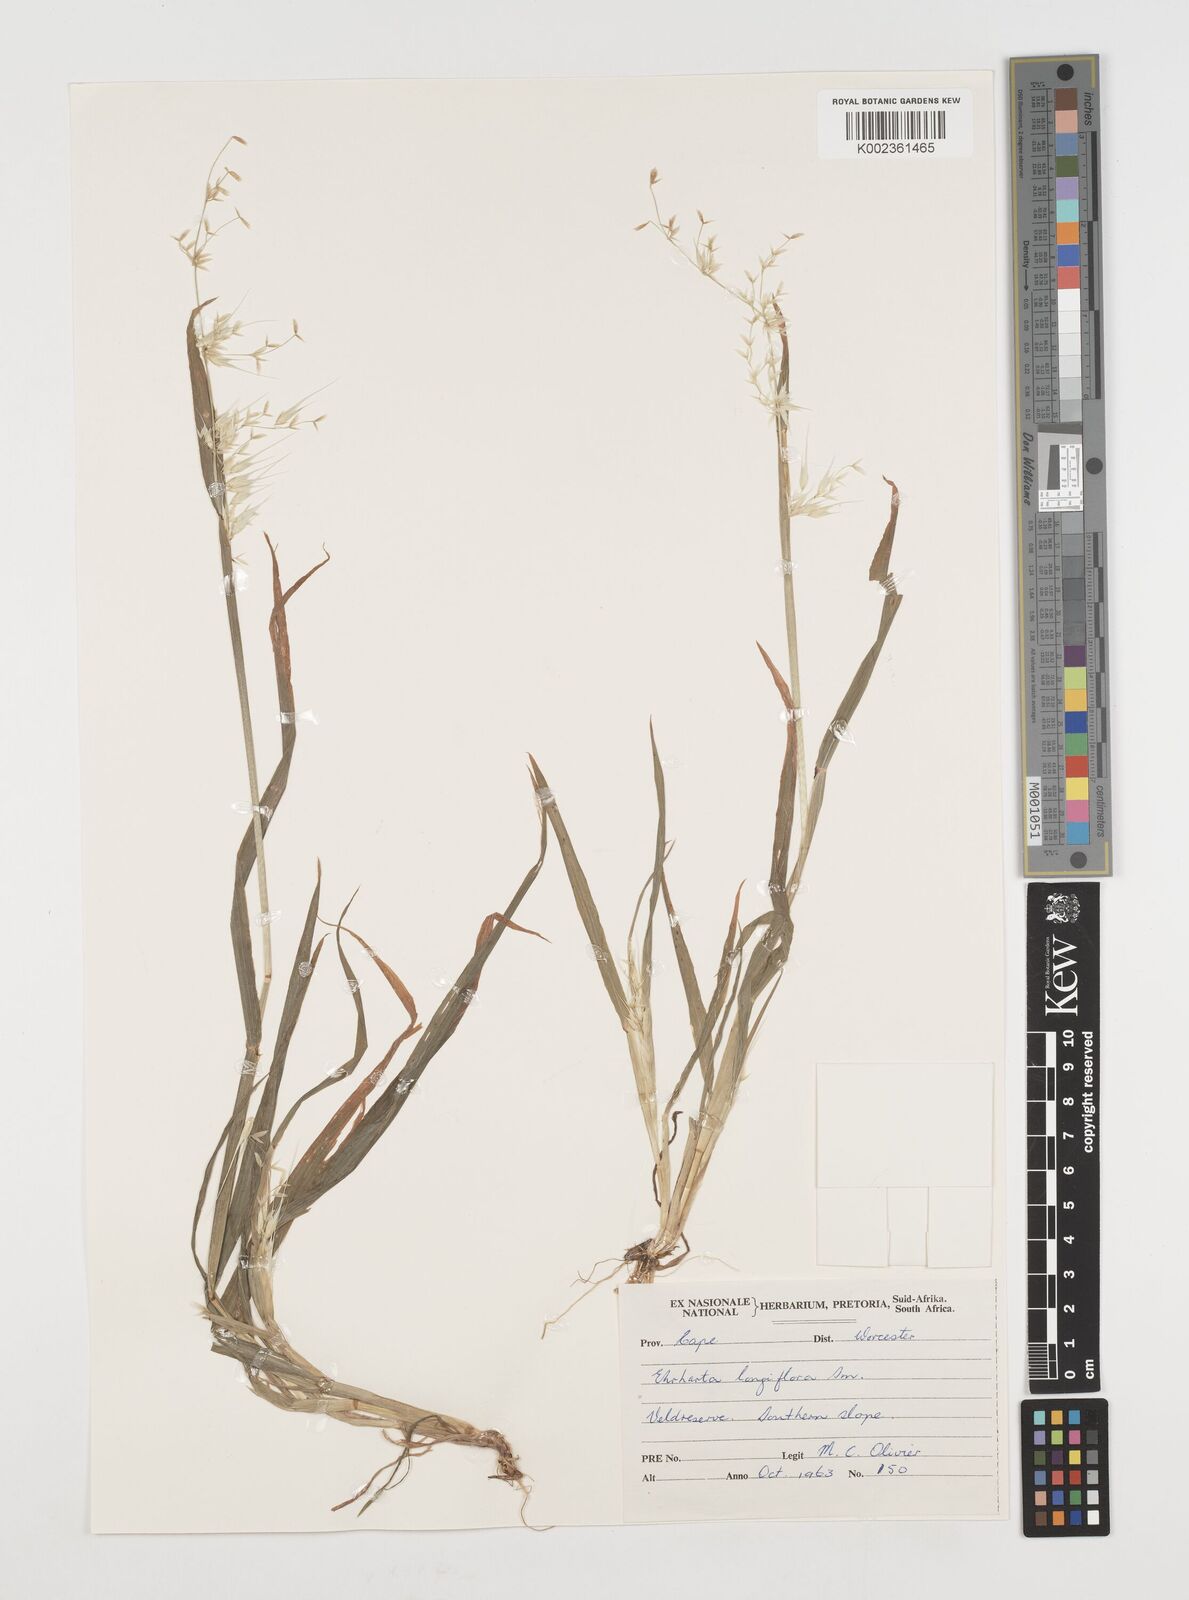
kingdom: Plantae
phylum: Tracheophyta
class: Liliopsida
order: Poales
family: Poaceae
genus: Ehrharta
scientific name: Ehrharta longiflora
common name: Longflowered veldtgrass
